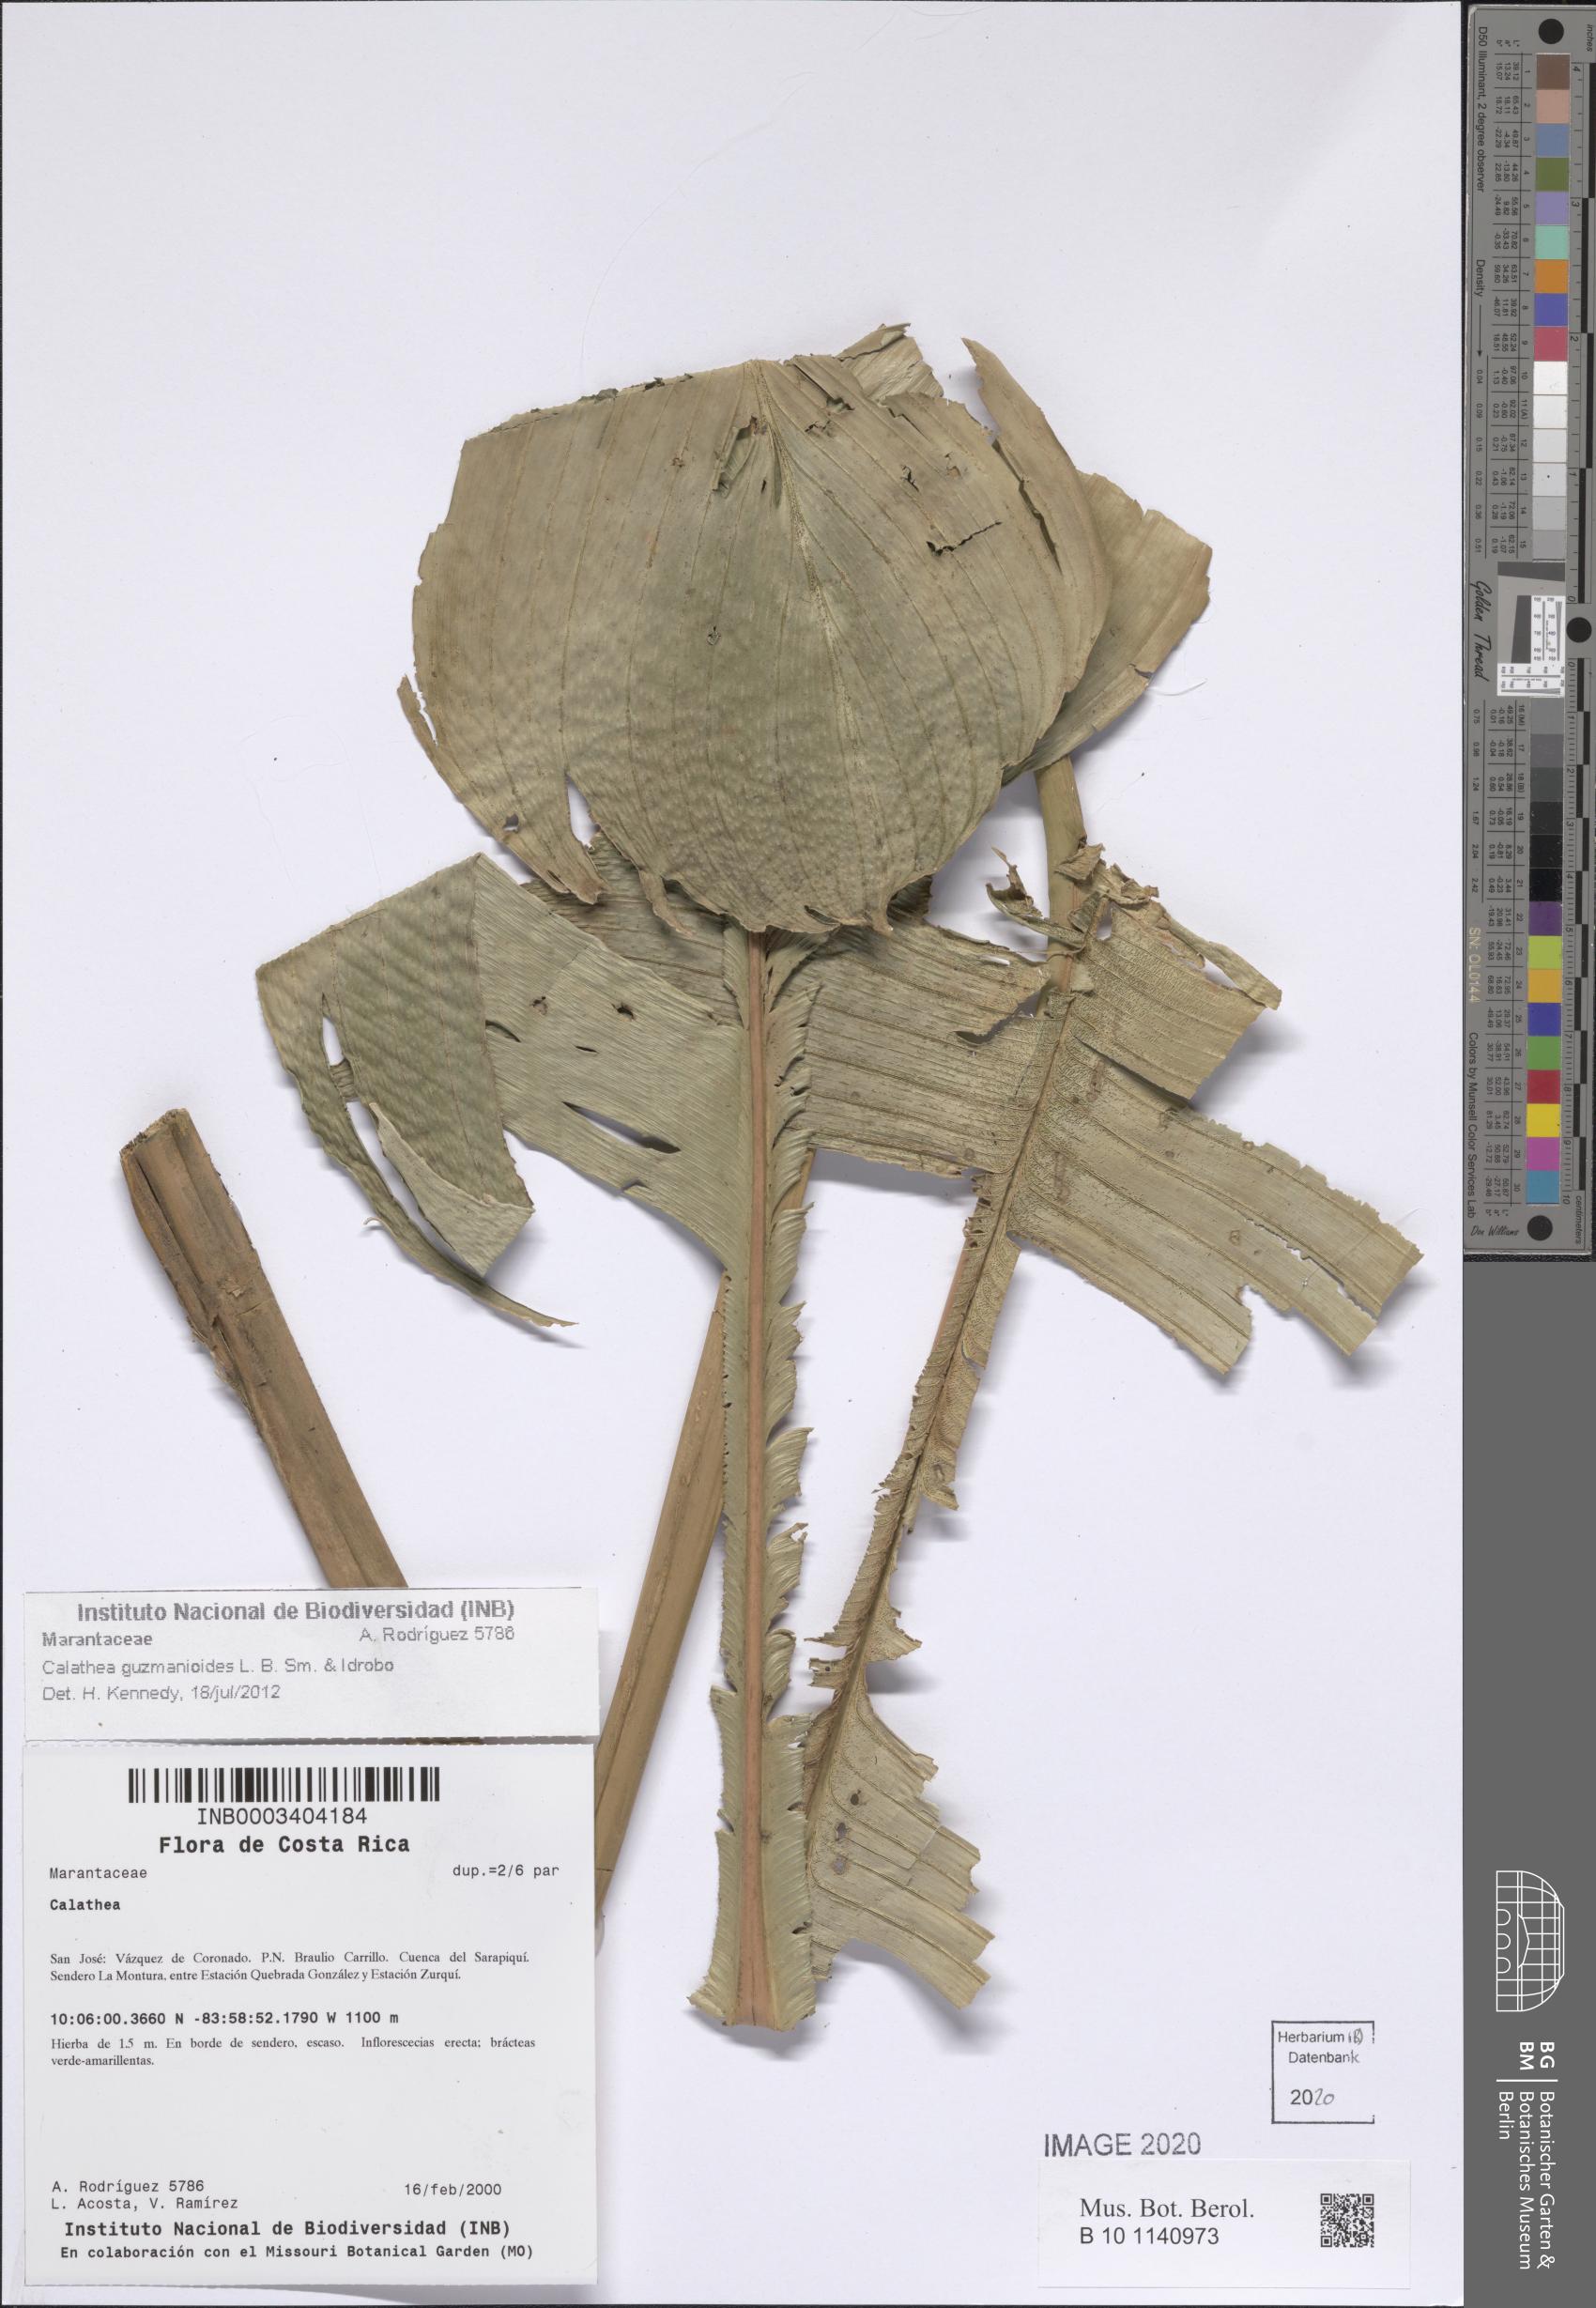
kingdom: Plantae
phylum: Tracheophyta
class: Liliopsida
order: Zingiberales
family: Marantaceae
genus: Calathea
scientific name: Calathea guzmanioides
